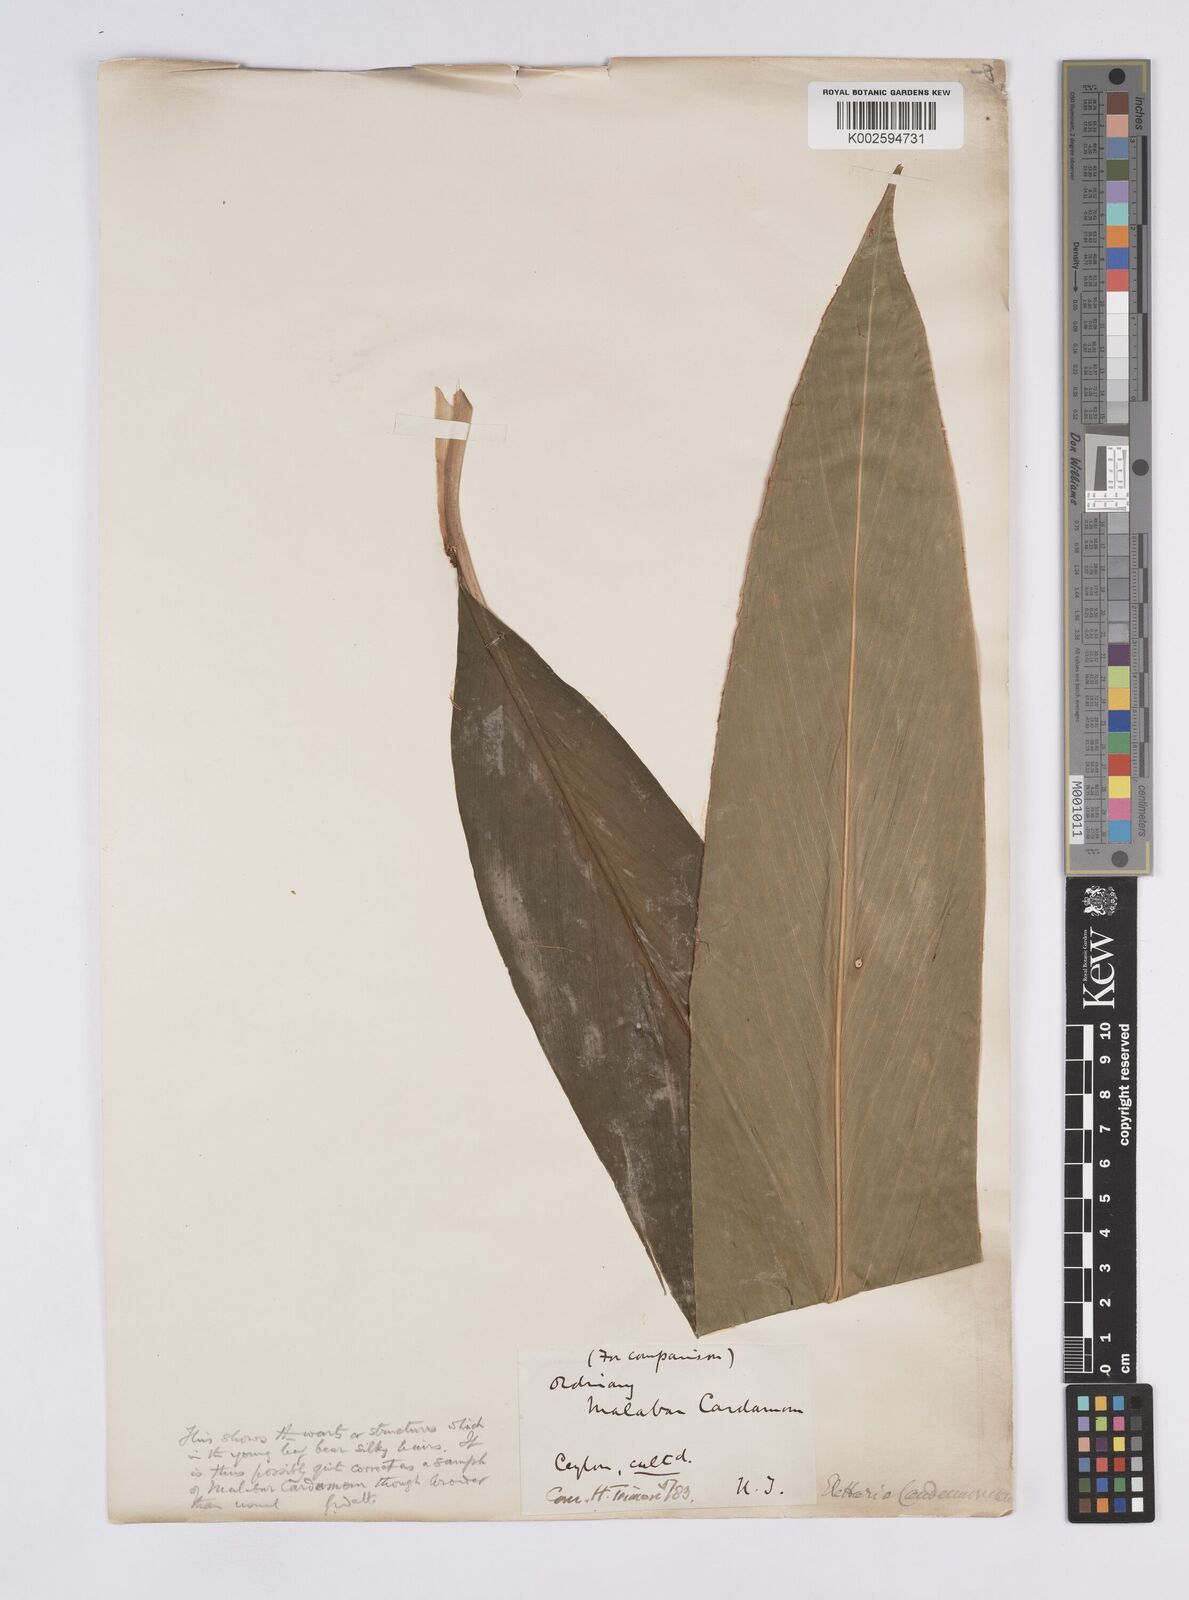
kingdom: Plantae
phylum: Tracheophyta
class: Liliopsida
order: Zingiberales
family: Zingiberaceae
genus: Elettaria
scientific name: Elettaria
